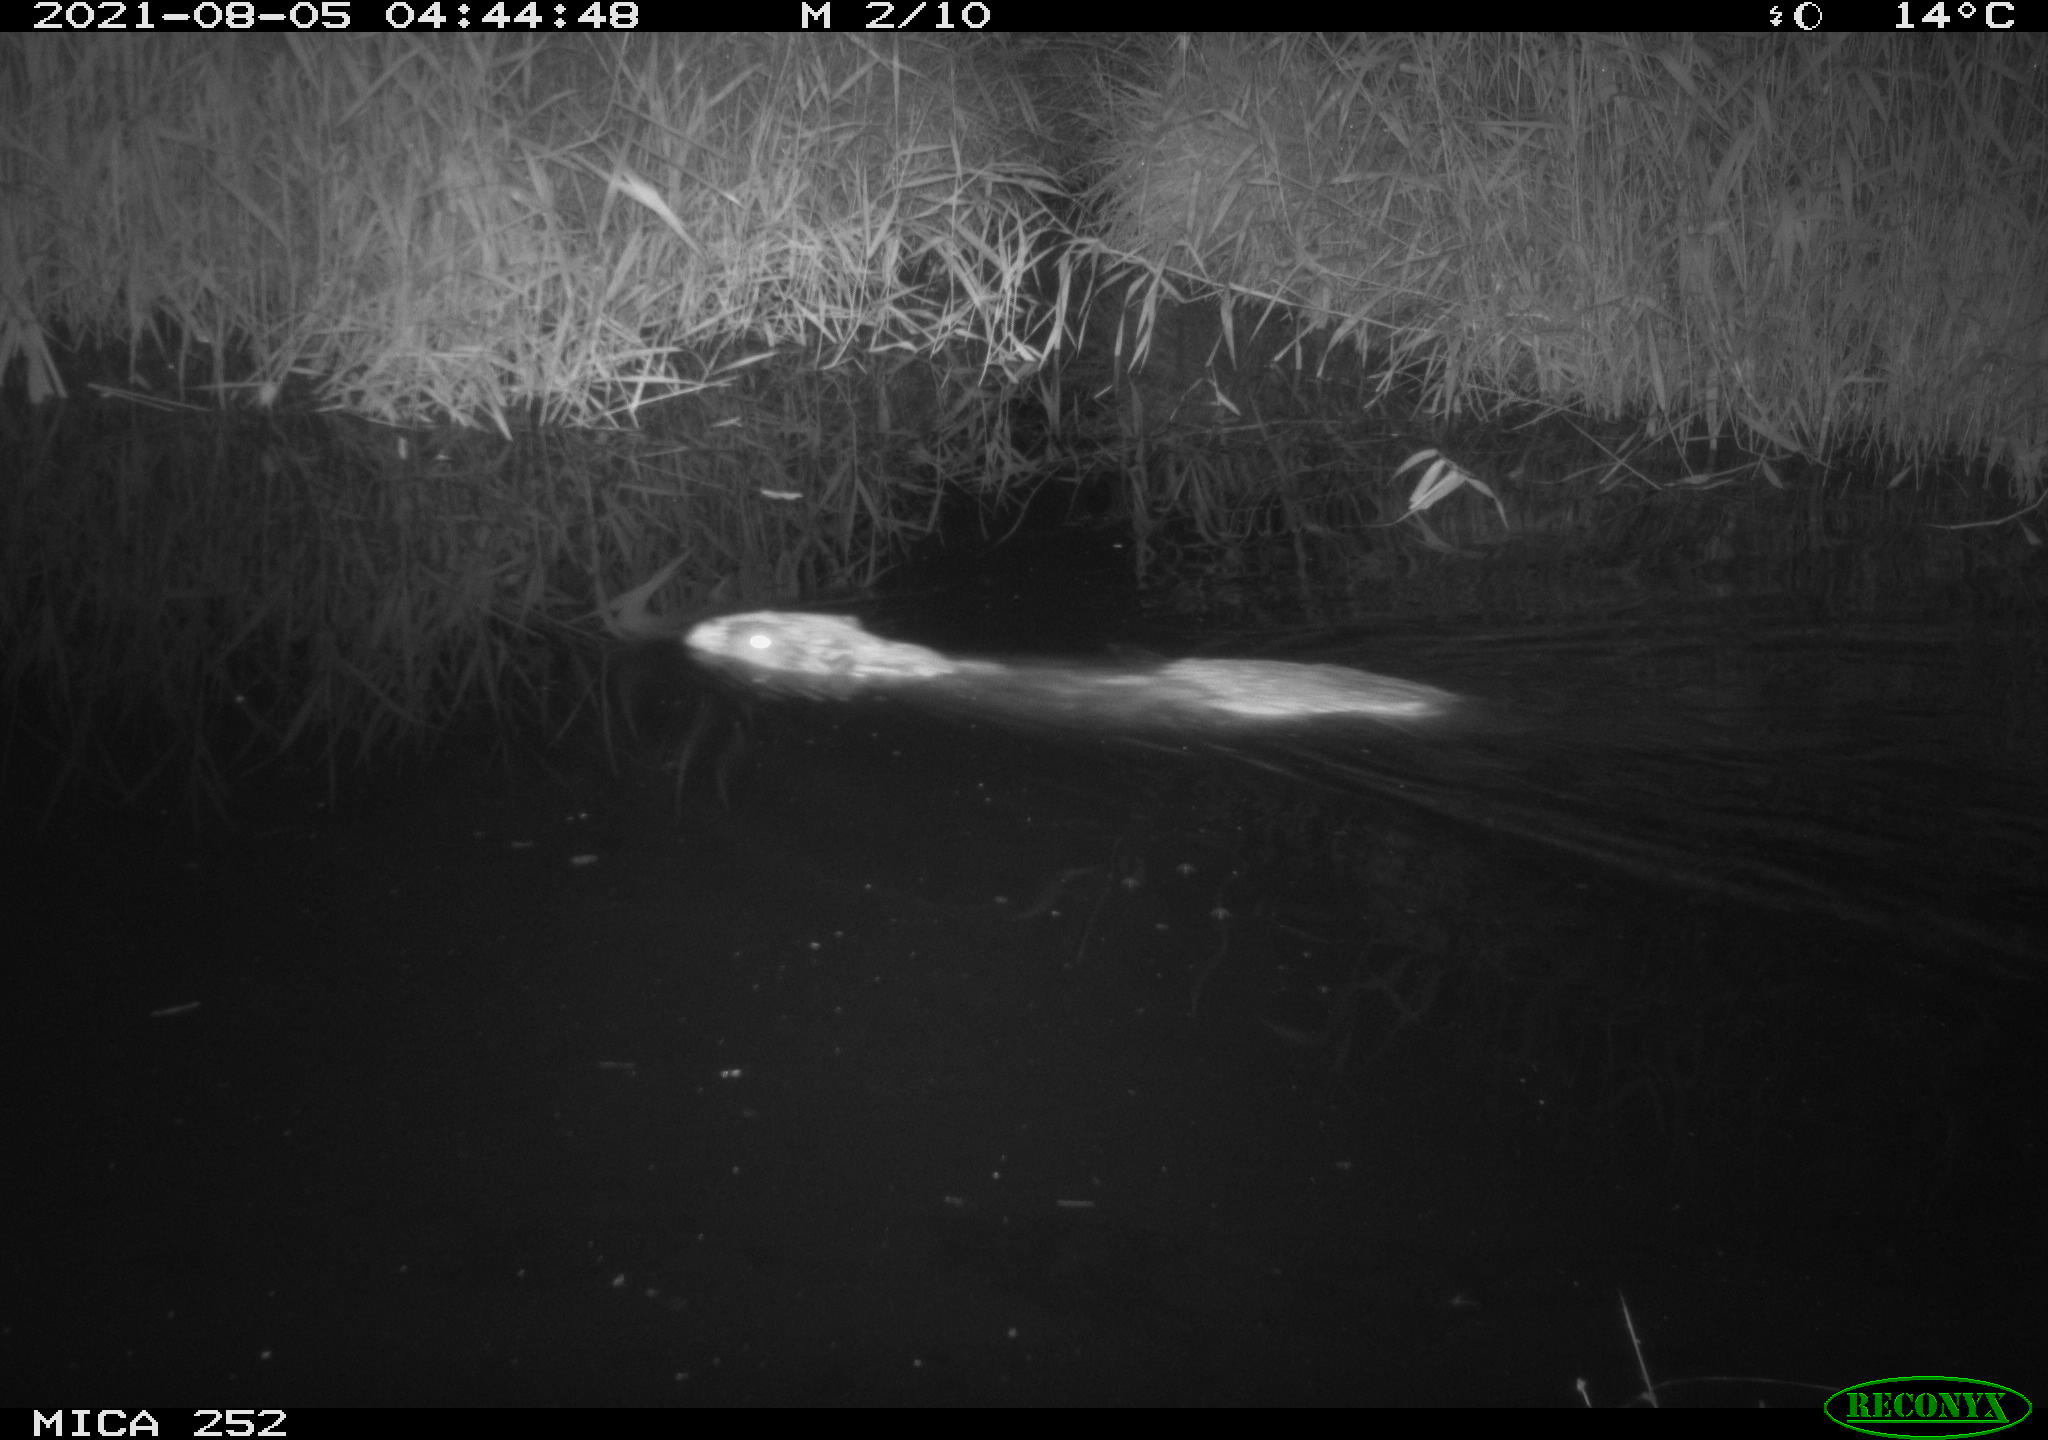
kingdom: Animalia
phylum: Chordata
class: Mammalia
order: Rodentia
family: Castoridae
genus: Castor
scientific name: Castor fiber
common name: Eurasian beaver
